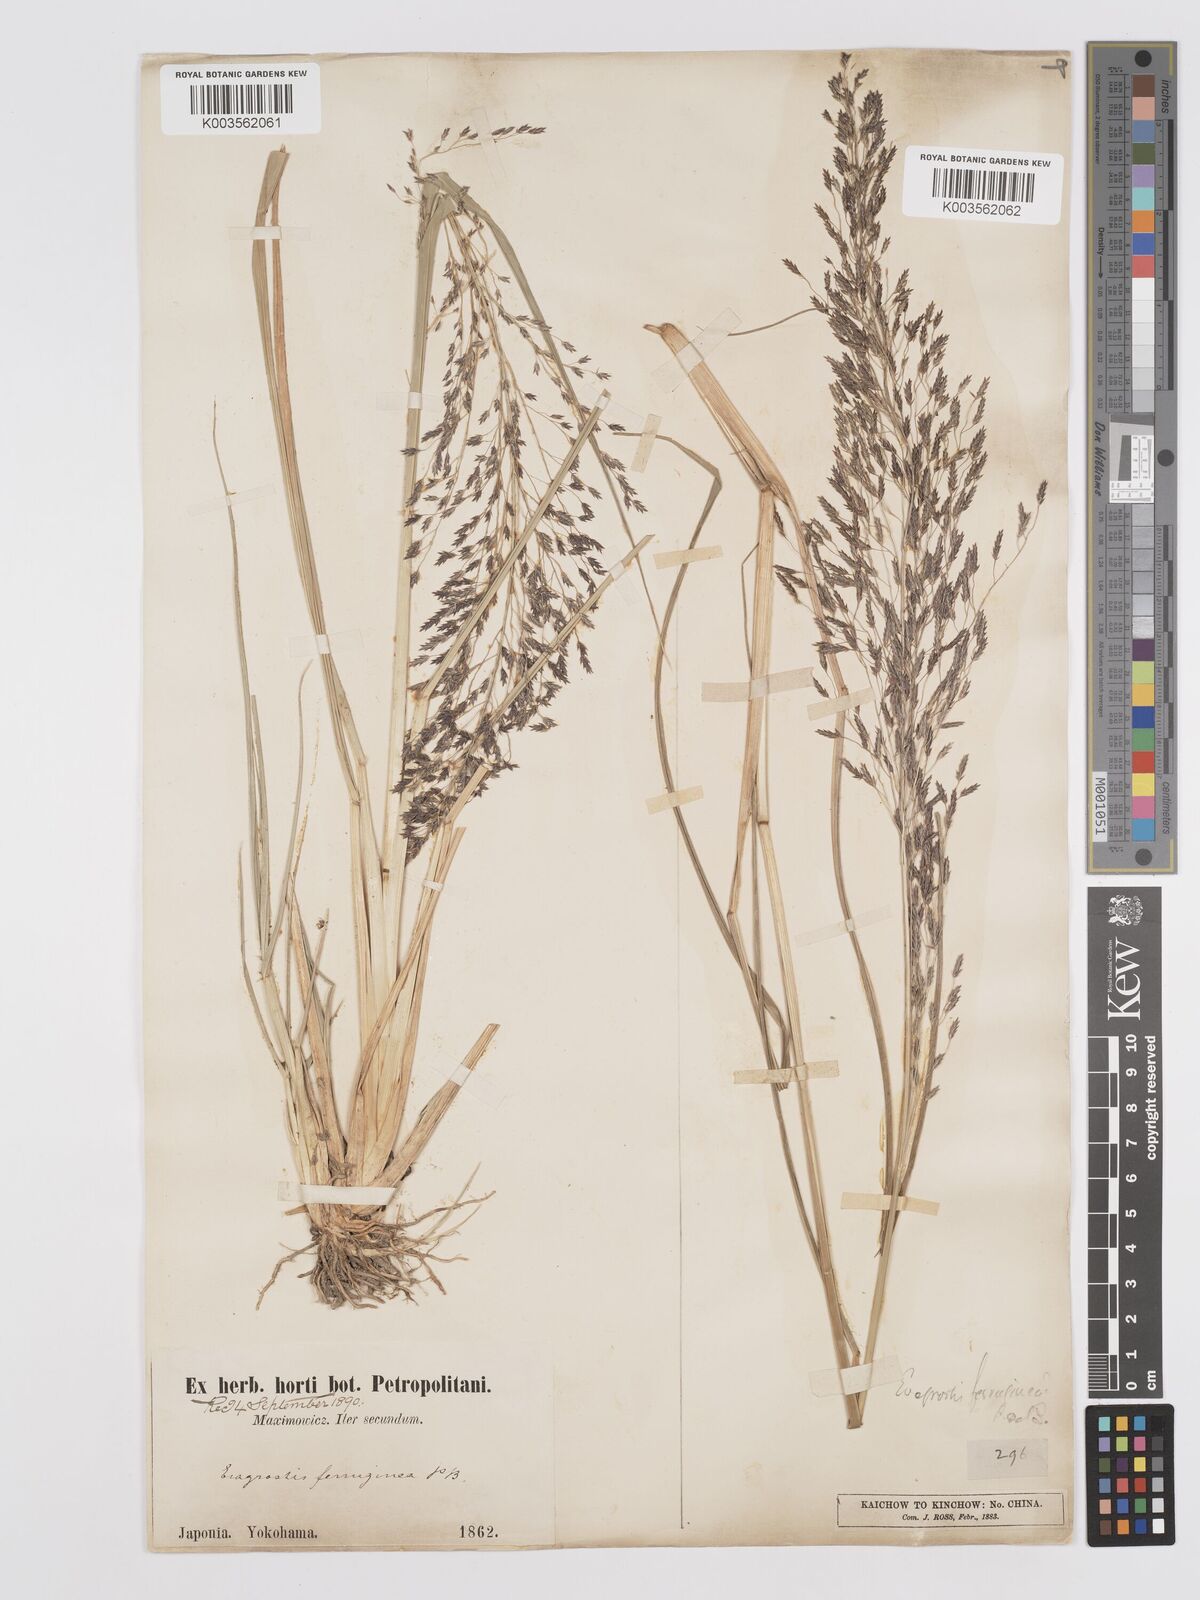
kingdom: Plantae
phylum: Tracheophyta
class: Liliopsida
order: Poales
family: Poaceae
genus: Eragrostis
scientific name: Eragrostis ferruginea
